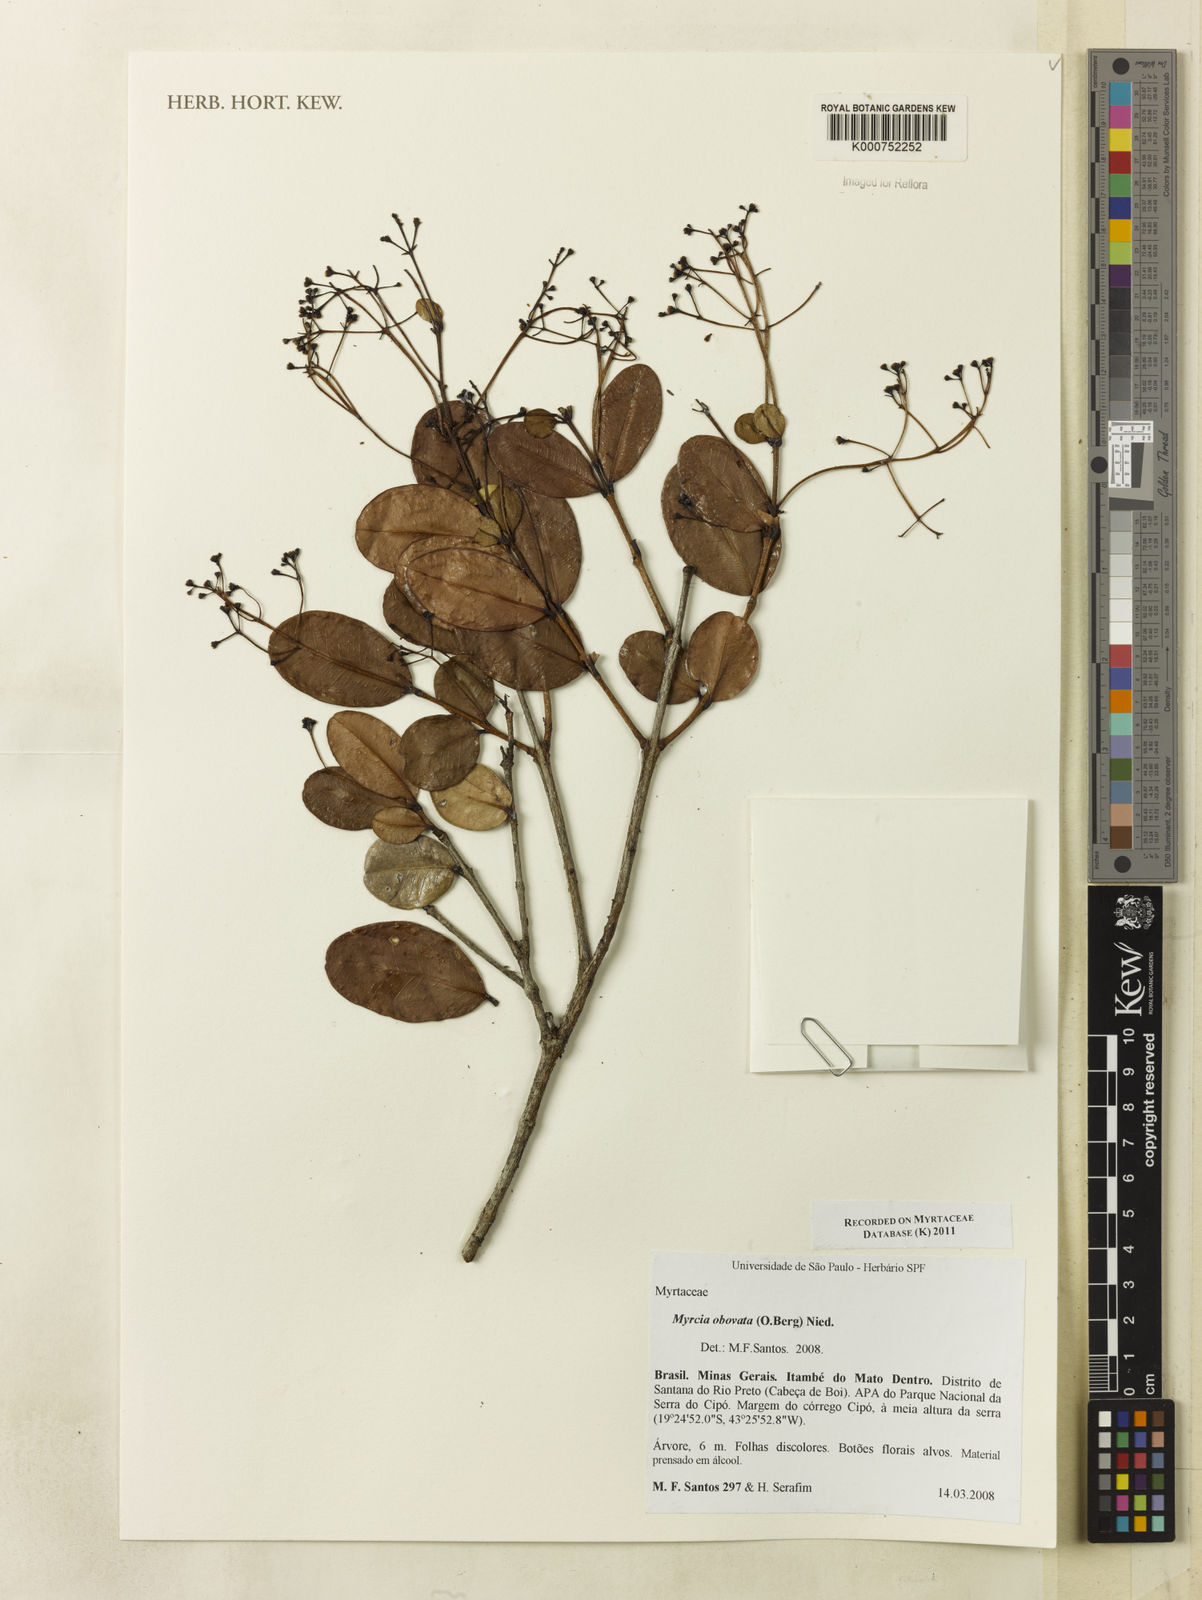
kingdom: Plantae
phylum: Tracheophyta
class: Magnoliopsida
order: Myrtales
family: Myrtaceae
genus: Myrcia
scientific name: Myrcia guianensis
